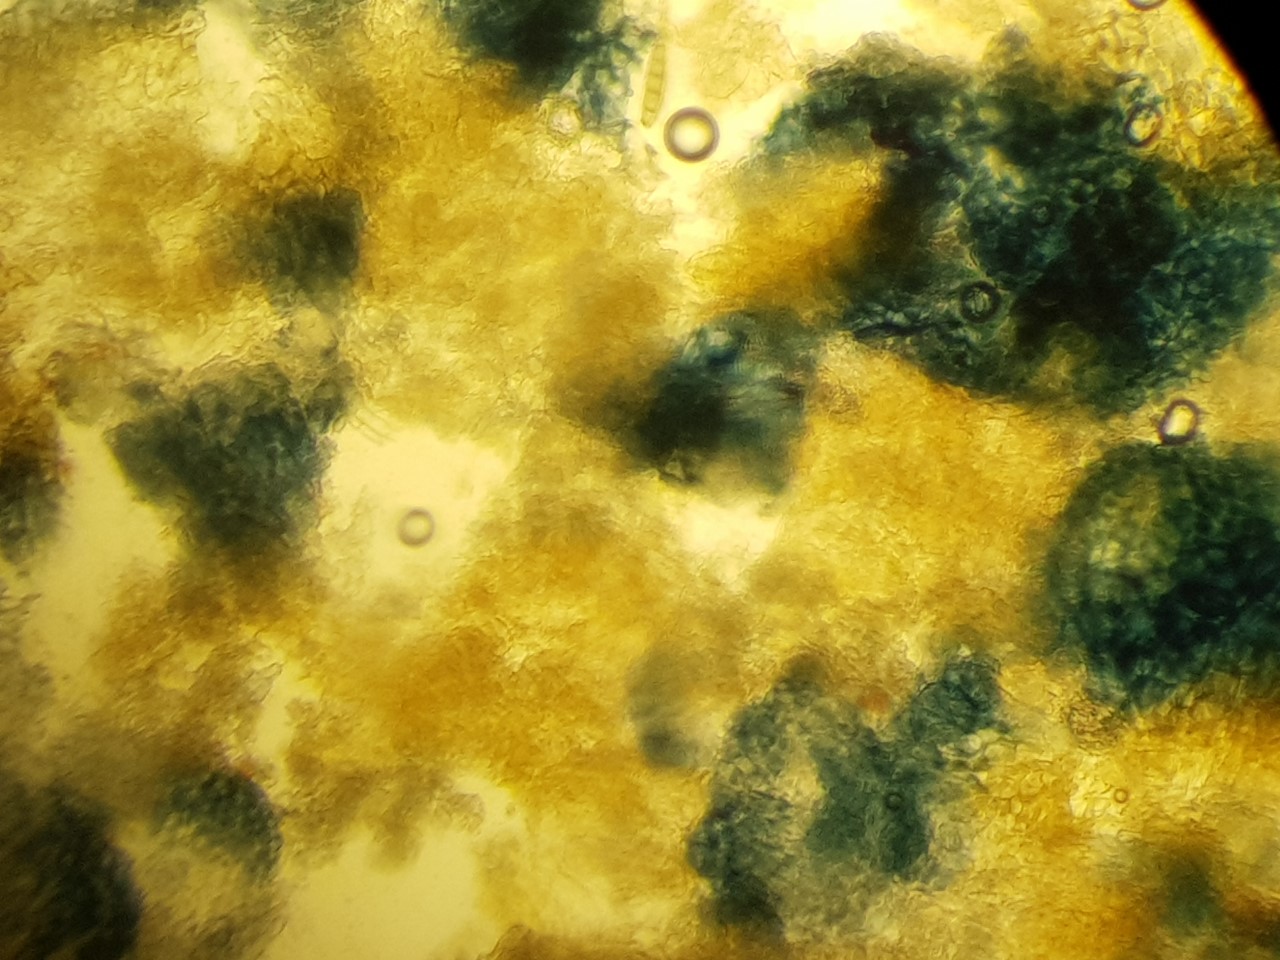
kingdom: Fungi
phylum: Ascomycota
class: Sordariomycetes
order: Hypocreales
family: Nectriaceae
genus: Cyanonectria
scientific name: Cyanonectria buxi
